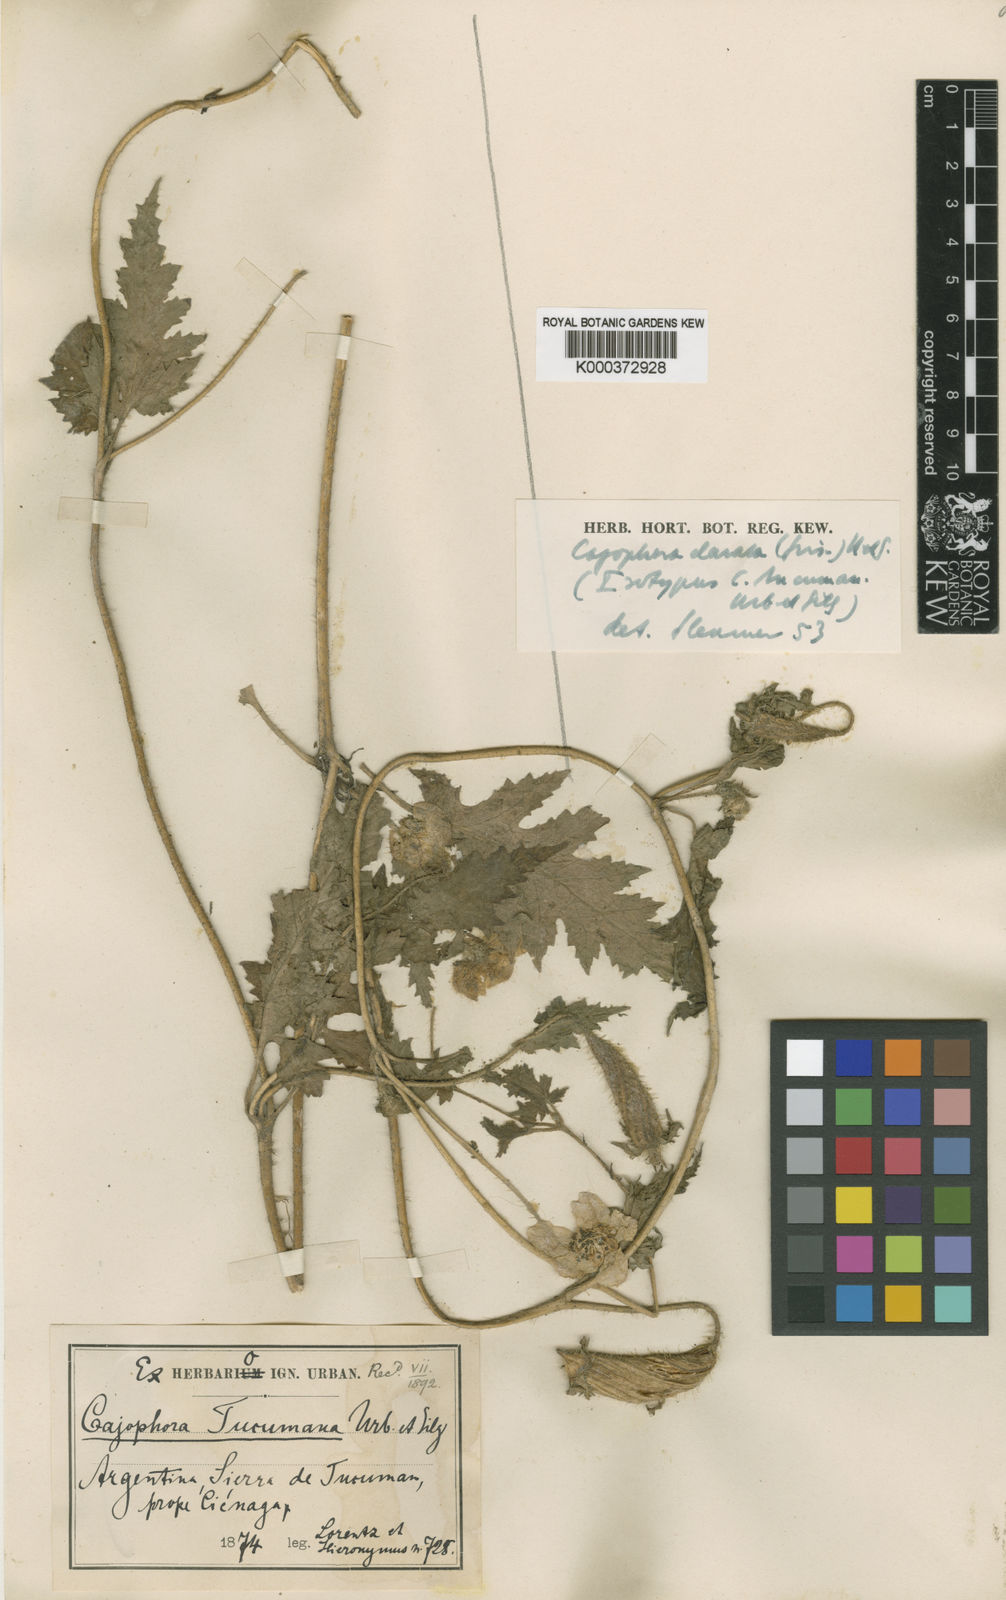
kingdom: Plantae
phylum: Tracheophyta
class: Magnoliopsida
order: Cornales
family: Loasaceae
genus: Caiophora
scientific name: Caiophora clavata
